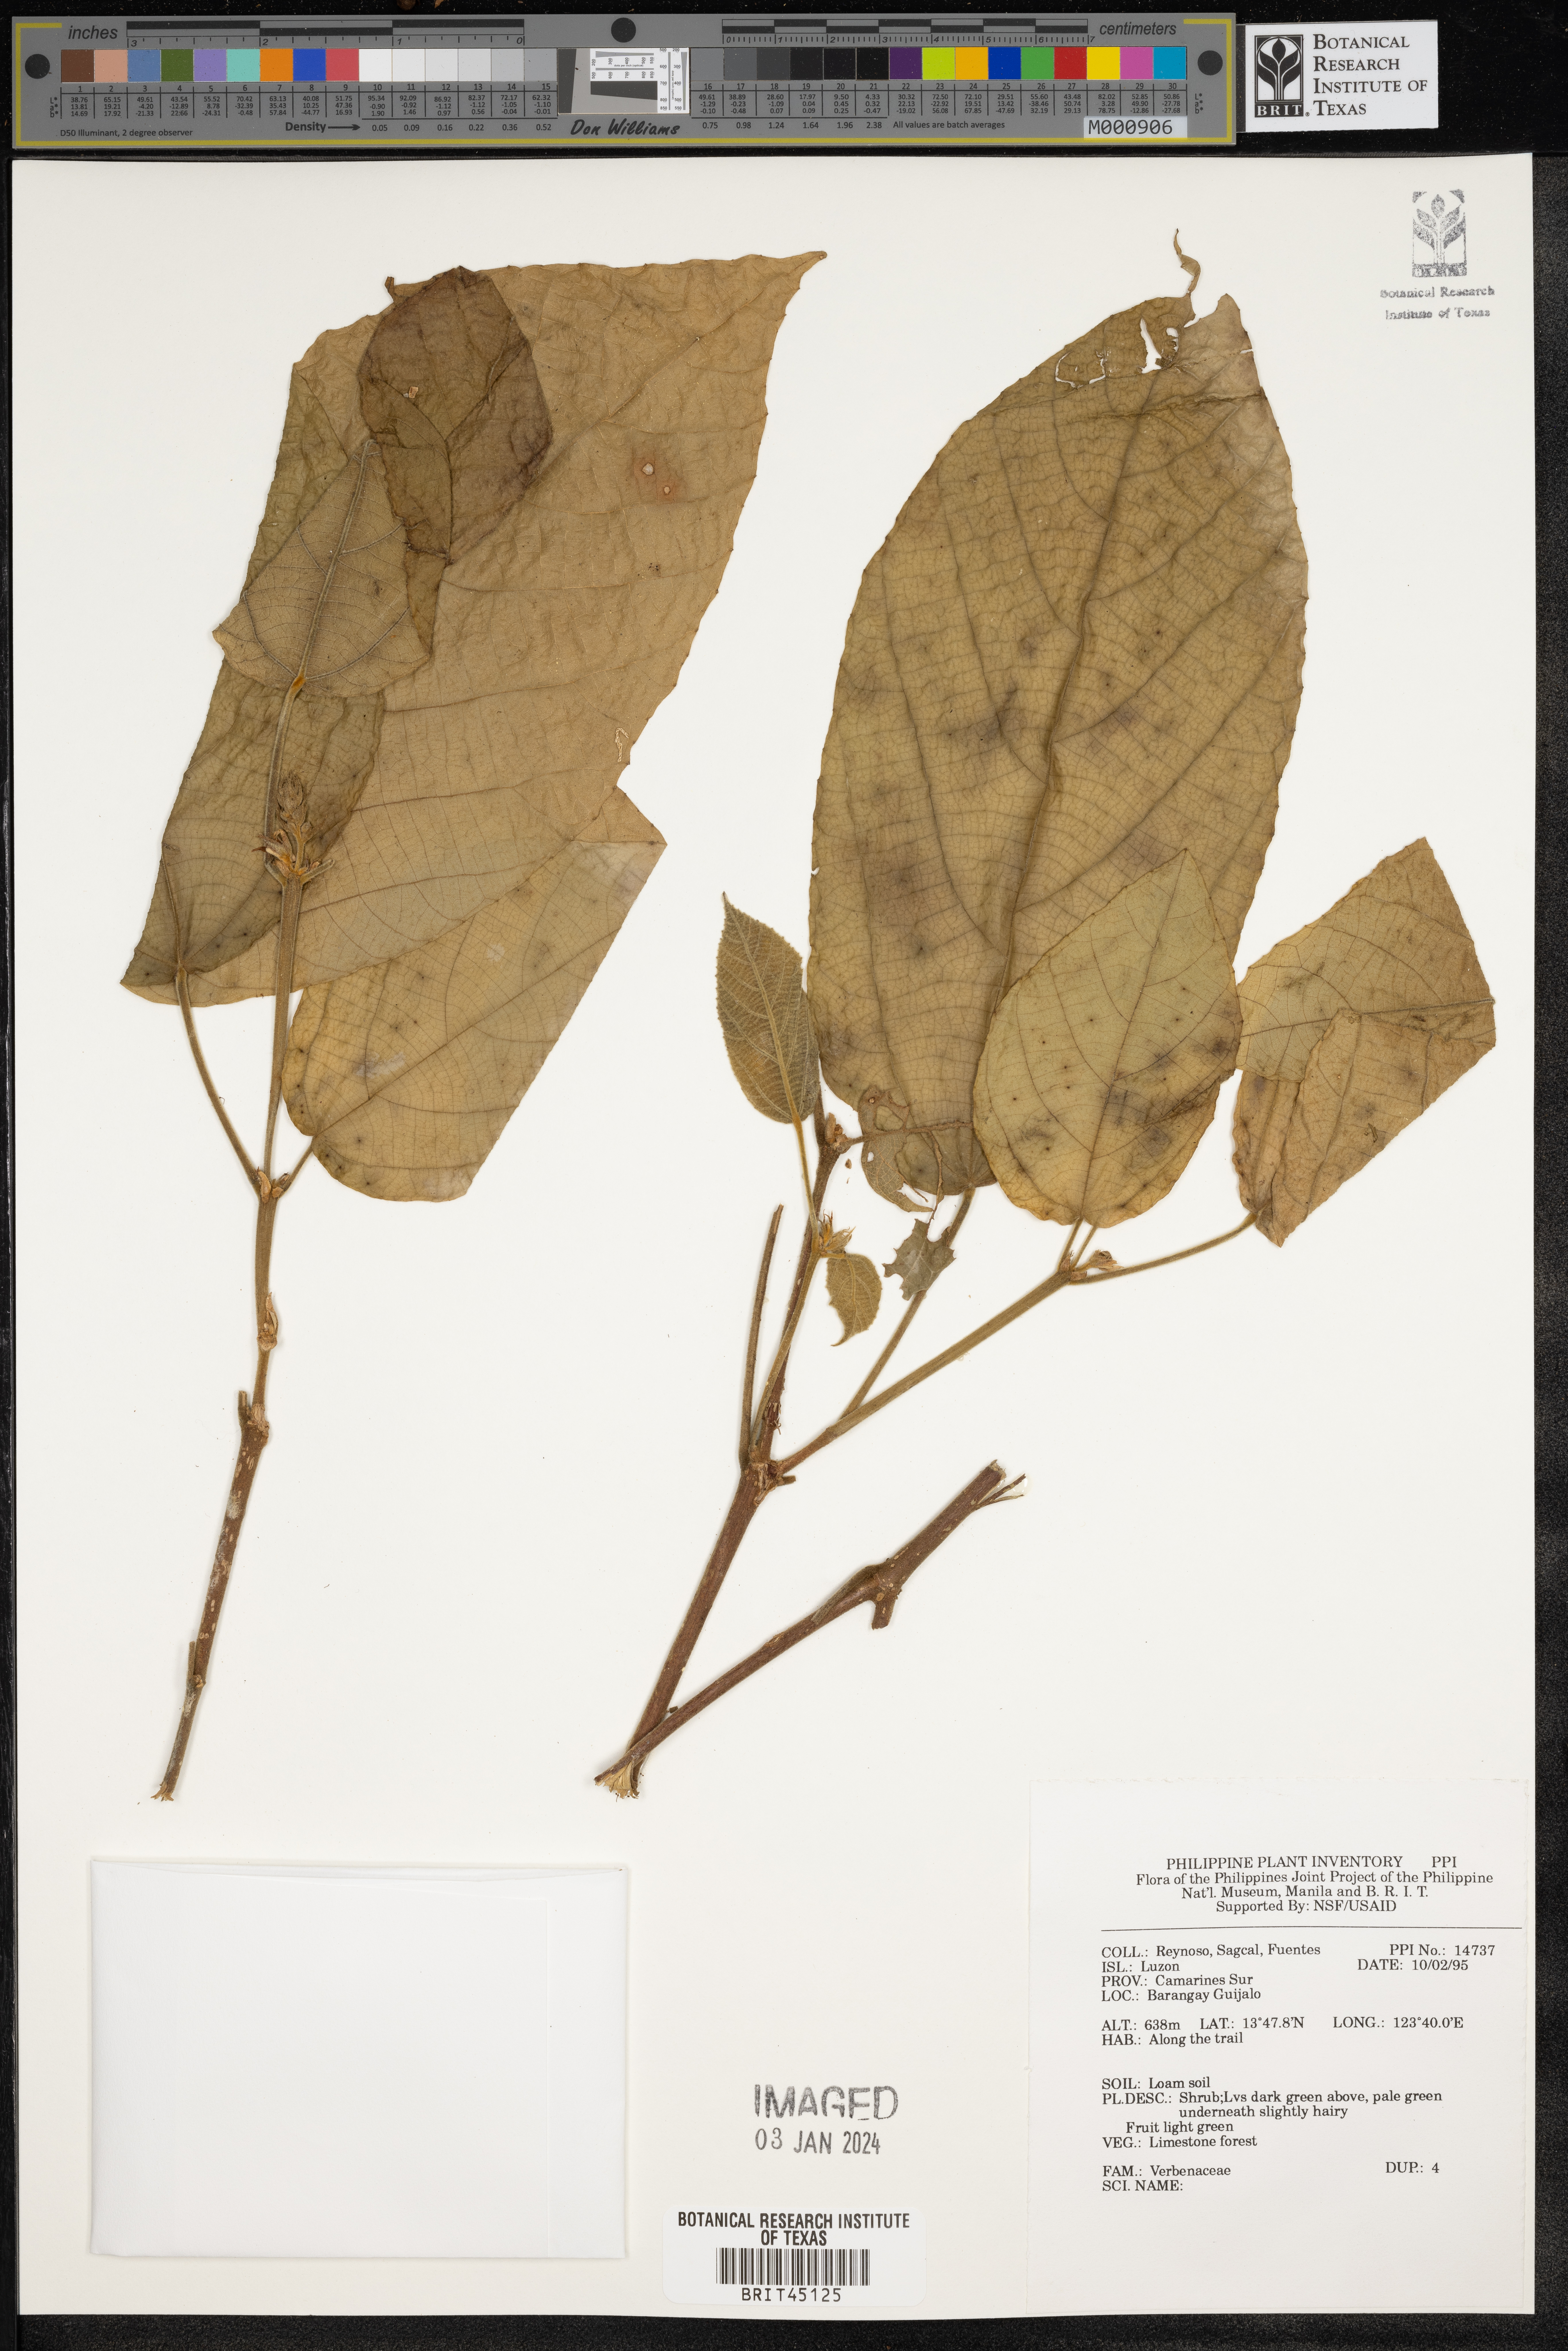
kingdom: Plantae
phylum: Tracheophyta
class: Magnoliopsida
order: Lamiales
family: Verbenaceae
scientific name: Verbenaceae
